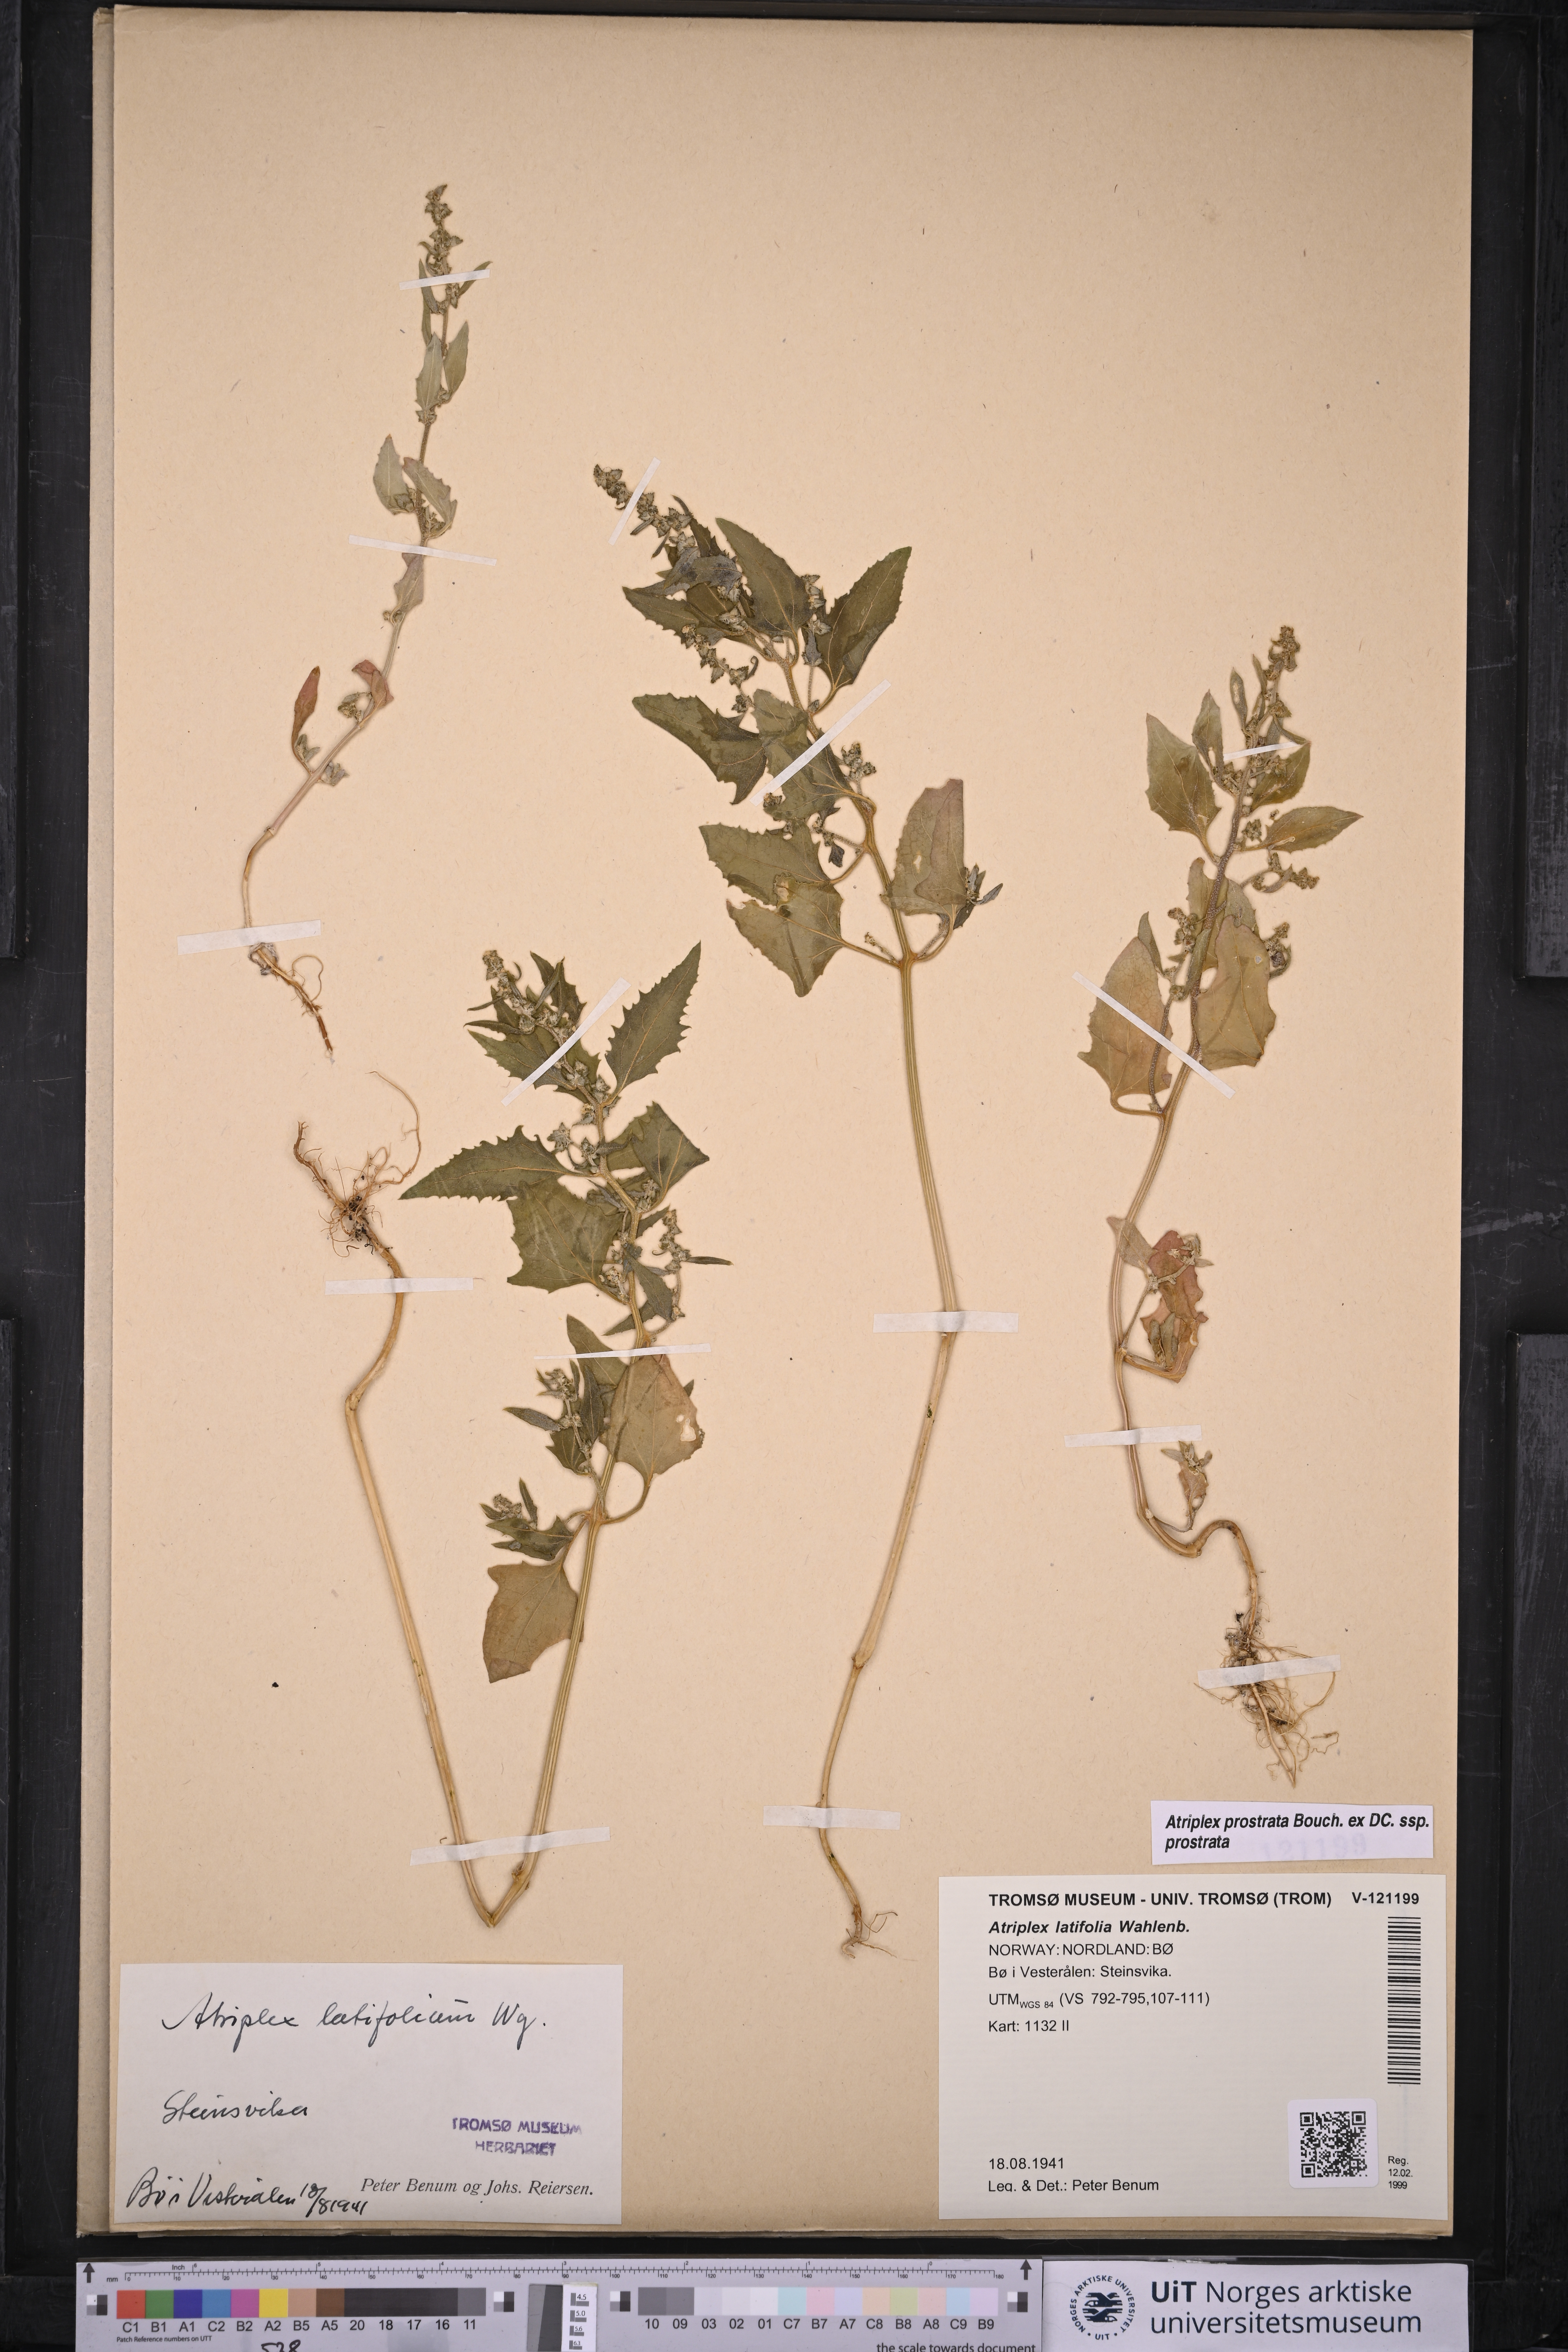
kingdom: Plantae
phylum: Tracheophyta
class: Magnoliopsida
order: Caryophyllales
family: Amaranthaceae
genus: Atriplex
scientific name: Atriplex prostrata
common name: Spear-leaved orache
